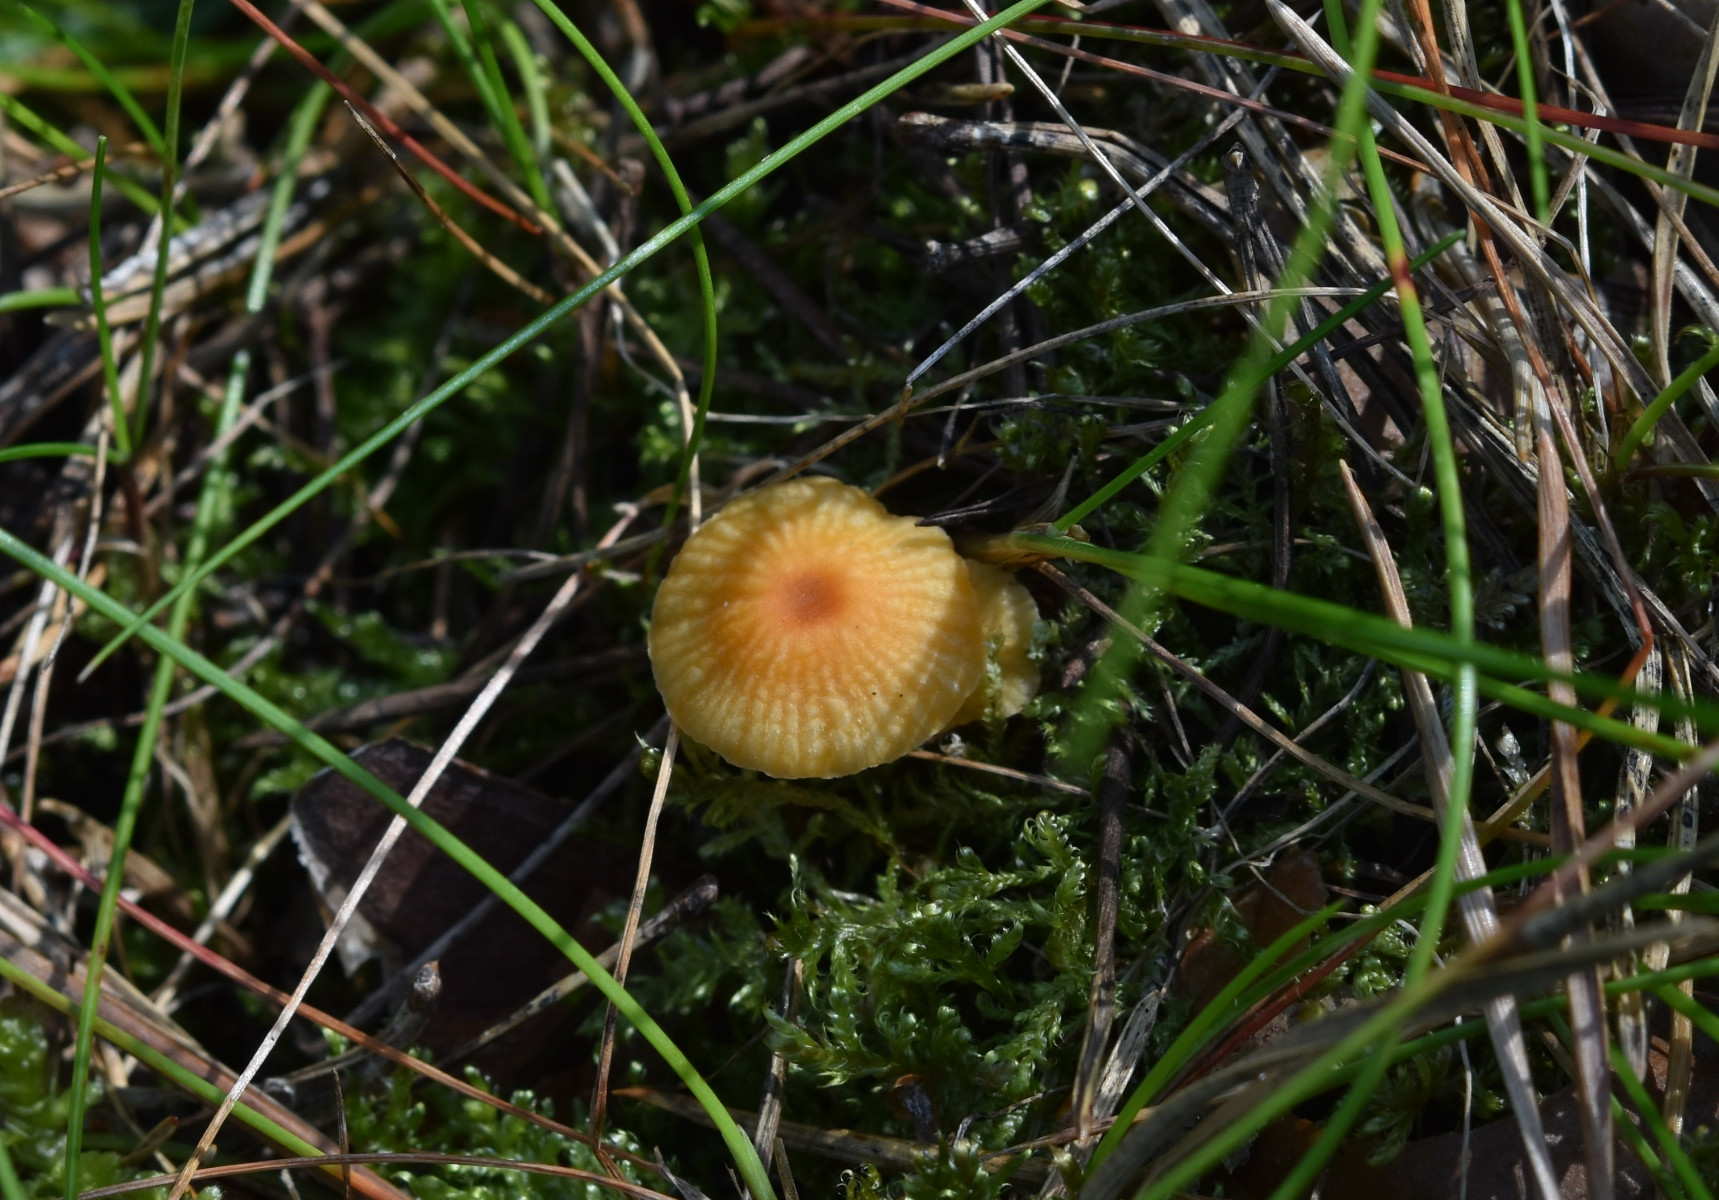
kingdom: Fungi
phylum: Basidiomycota
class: Agaricomycetes
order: Hymenochaetales
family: Rickenellaceae
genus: Rickenella
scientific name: Rickenella fibula
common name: orange mosnavlehat
